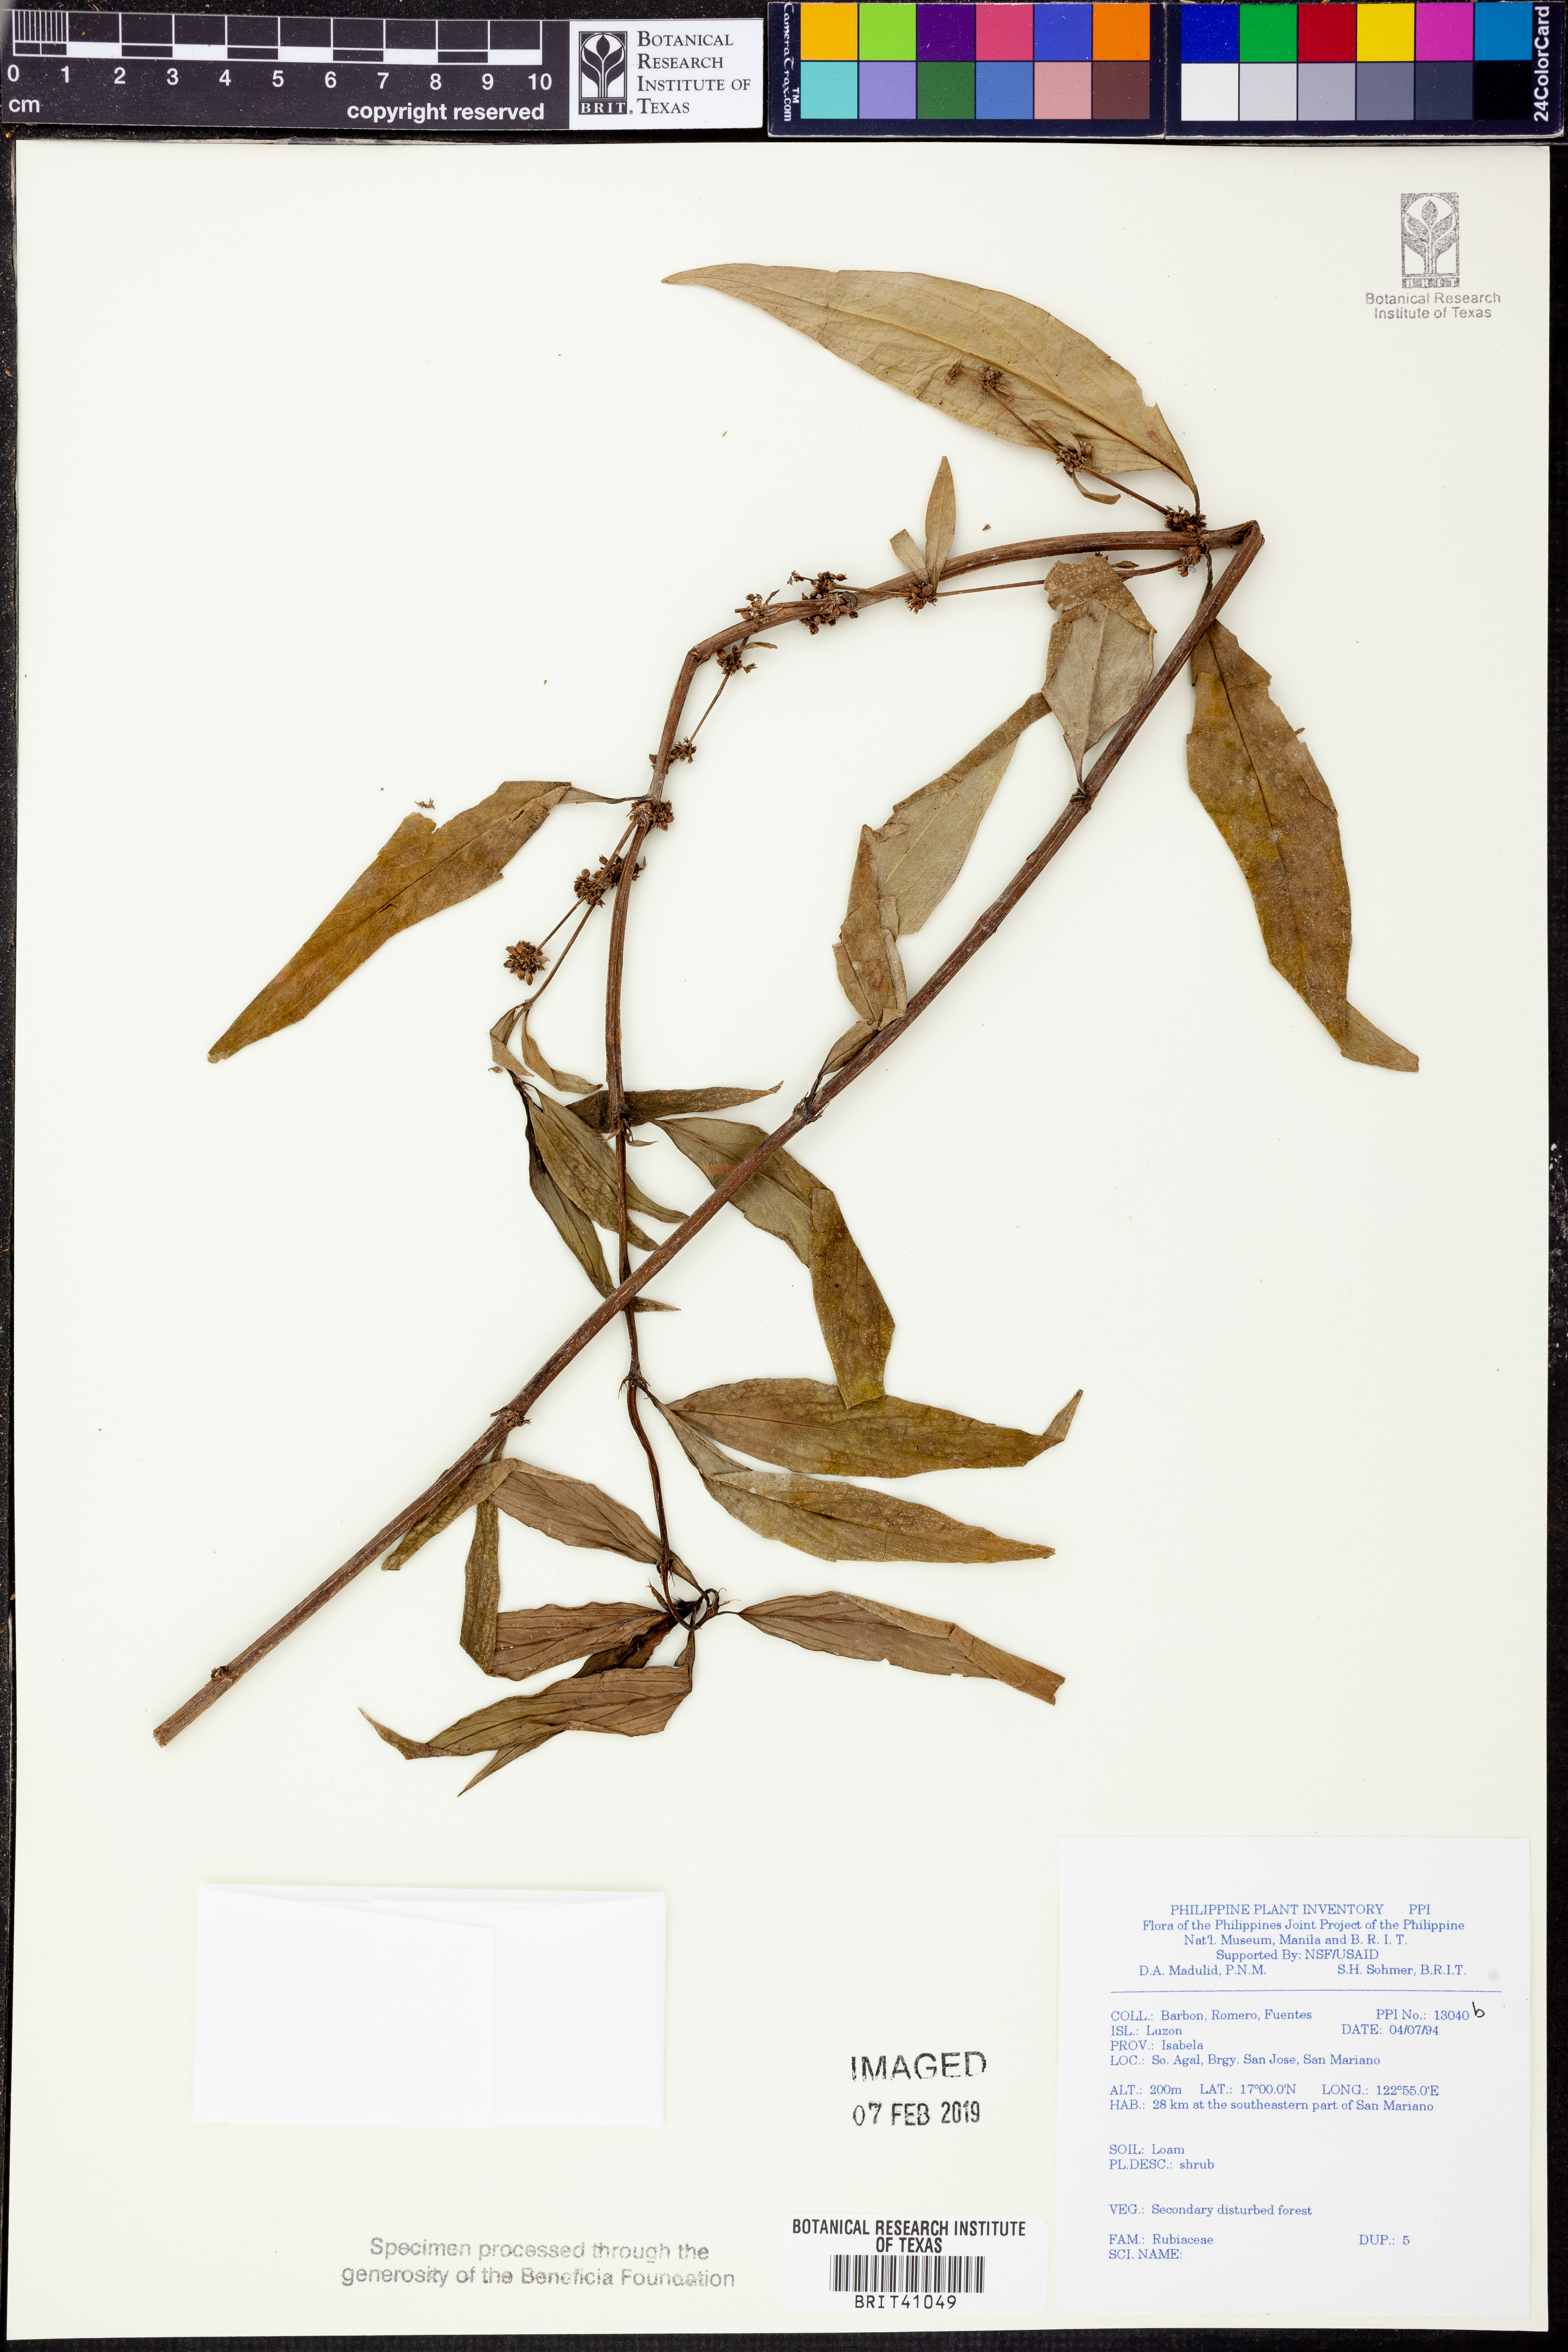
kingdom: Plantae
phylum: Tracheophyta
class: Magnoliopsida
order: Gentianales
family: Rubiaceae
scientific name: Rubiaceae
